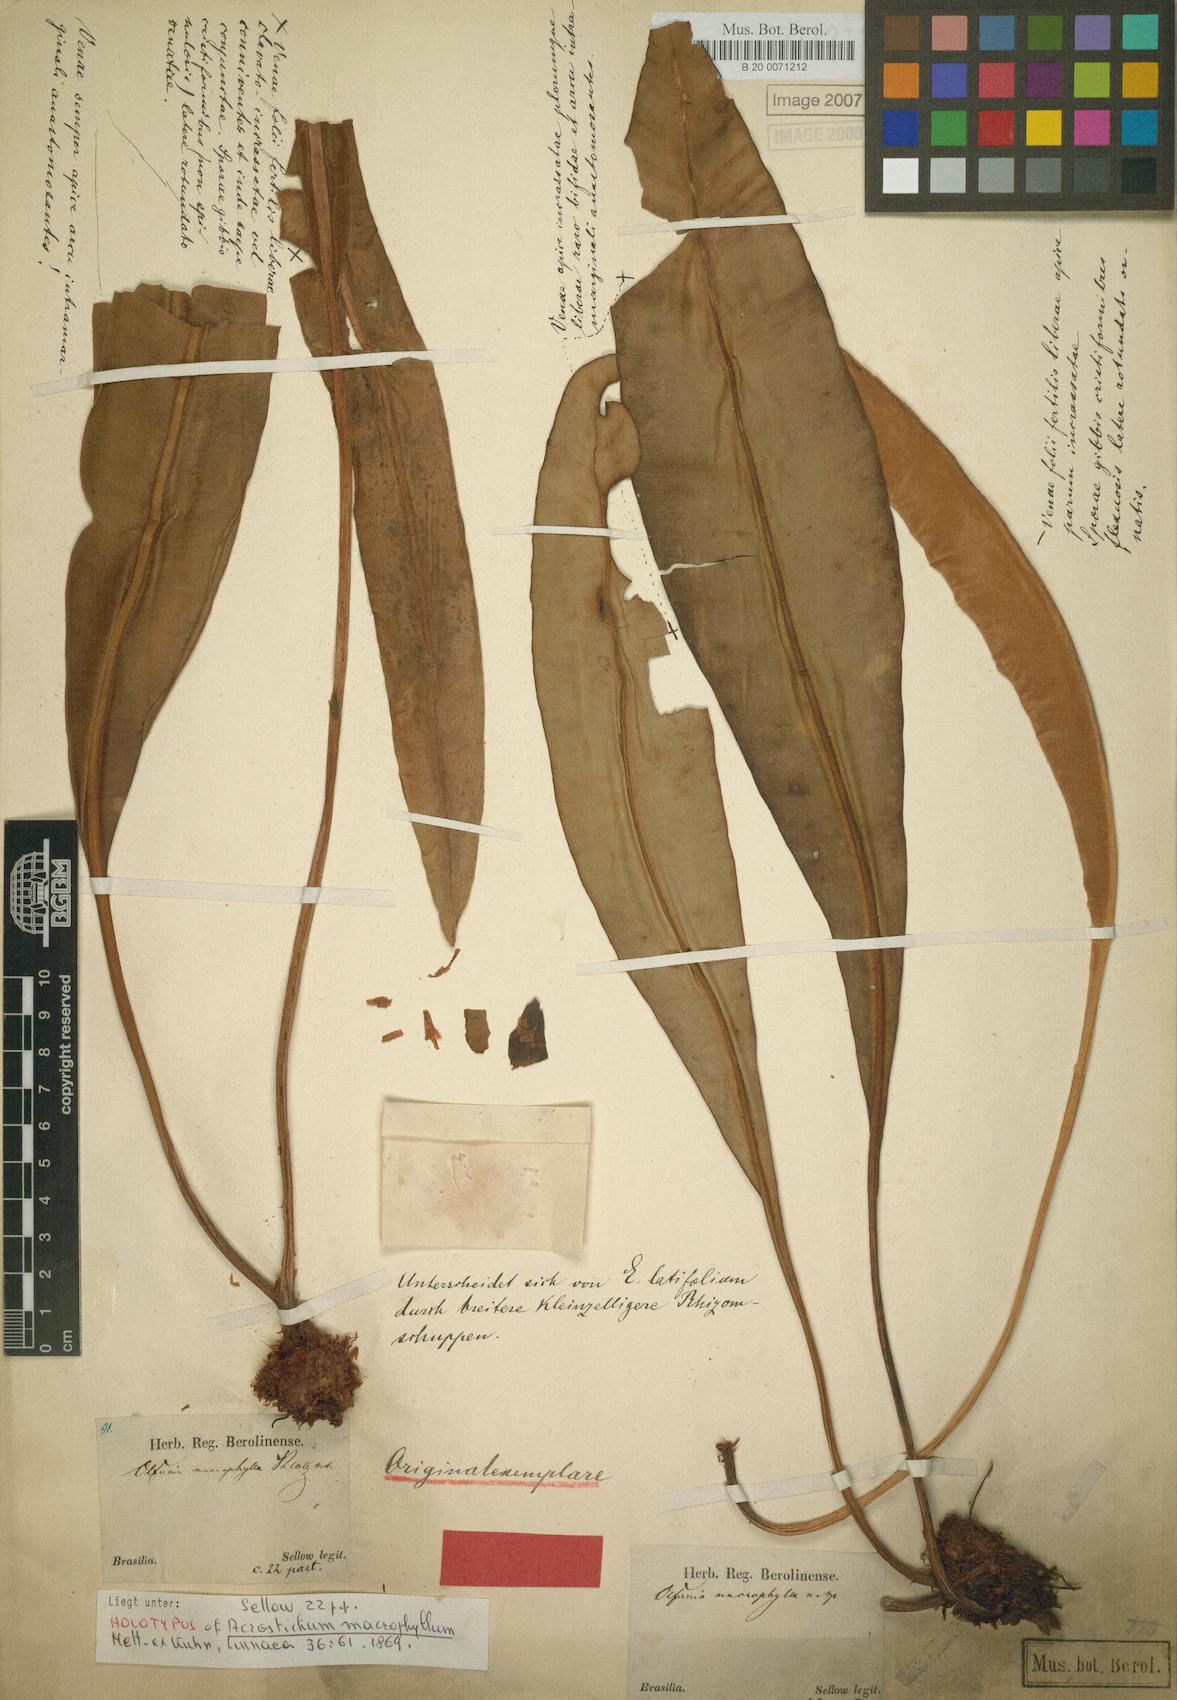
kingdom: Plantae
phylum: Tracheophyta
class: Polypodiopsida
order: Polypodiales
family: Dryopteridaceae
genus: Elaphoglossum
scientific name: Elaphoglossum macrophyllum
